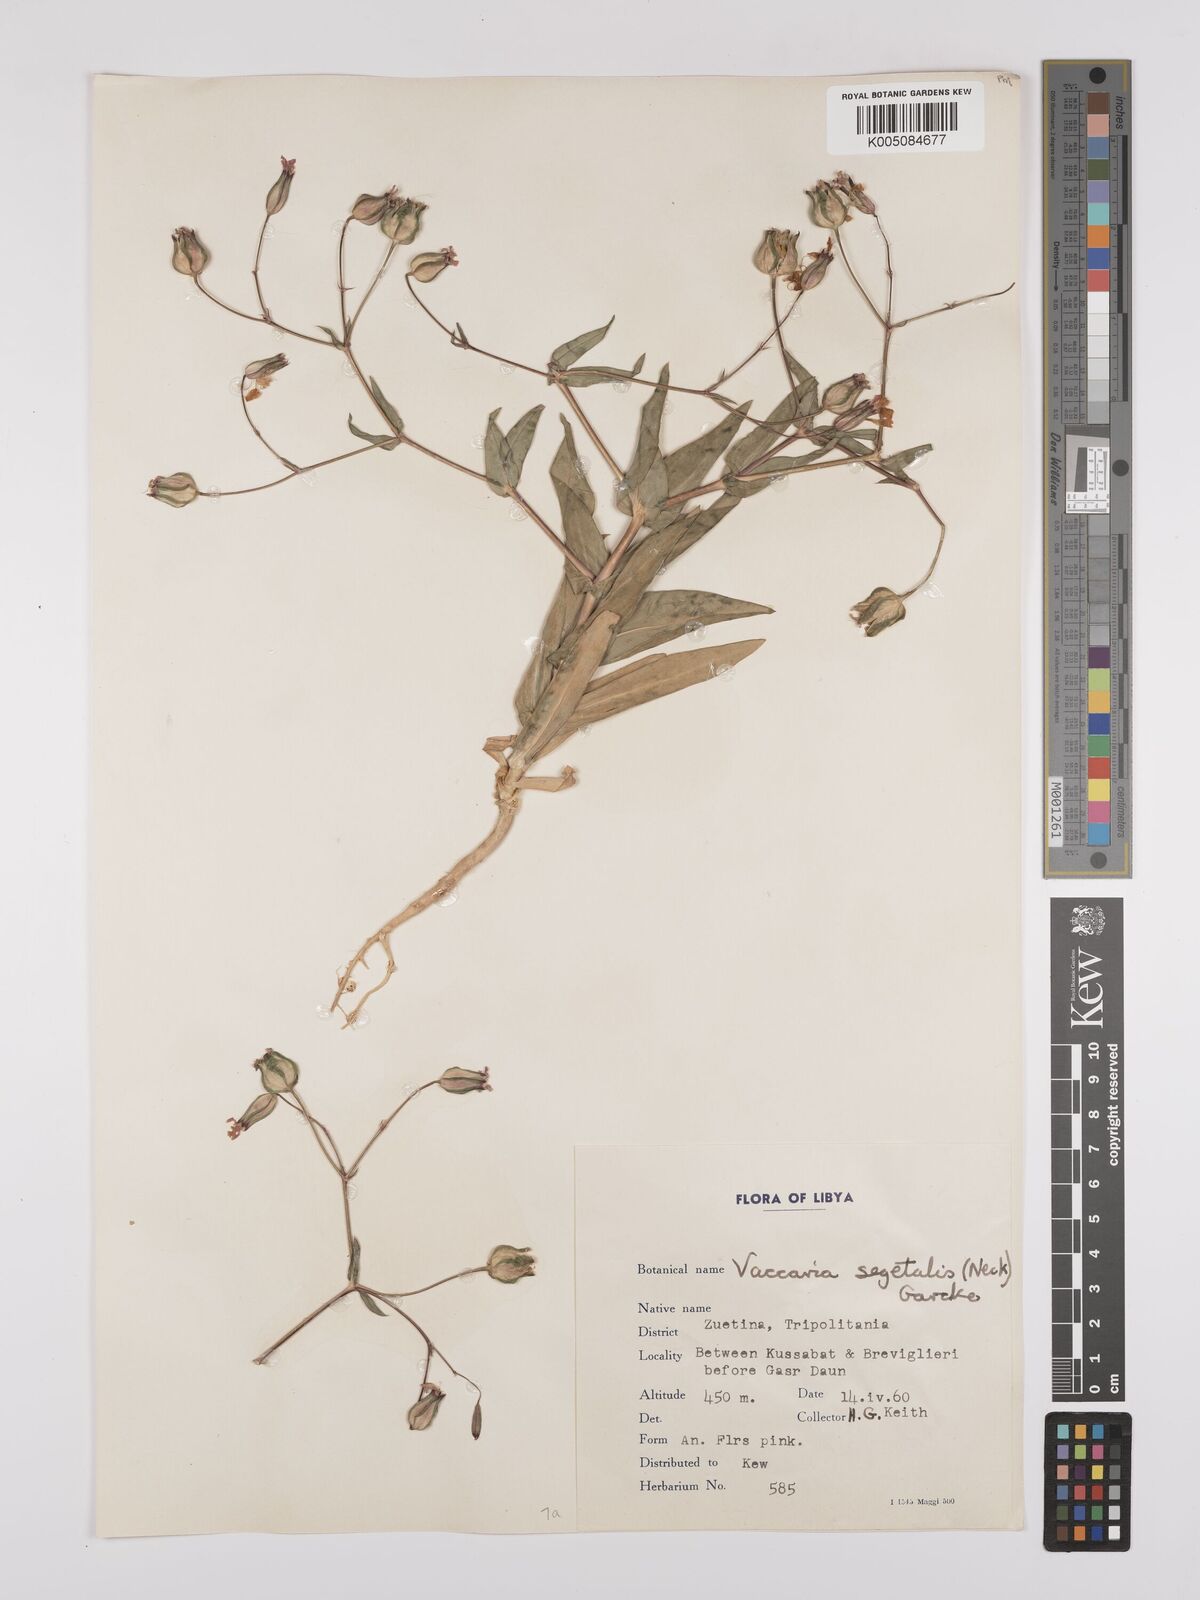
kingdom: Plantae
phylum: Tracheophyta
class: Magnoliopsida
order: Caryophyllales
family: Caryophyllaceae
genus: Gypsophila
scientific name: Gypsophila vaccaria
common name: Cow soapwort
